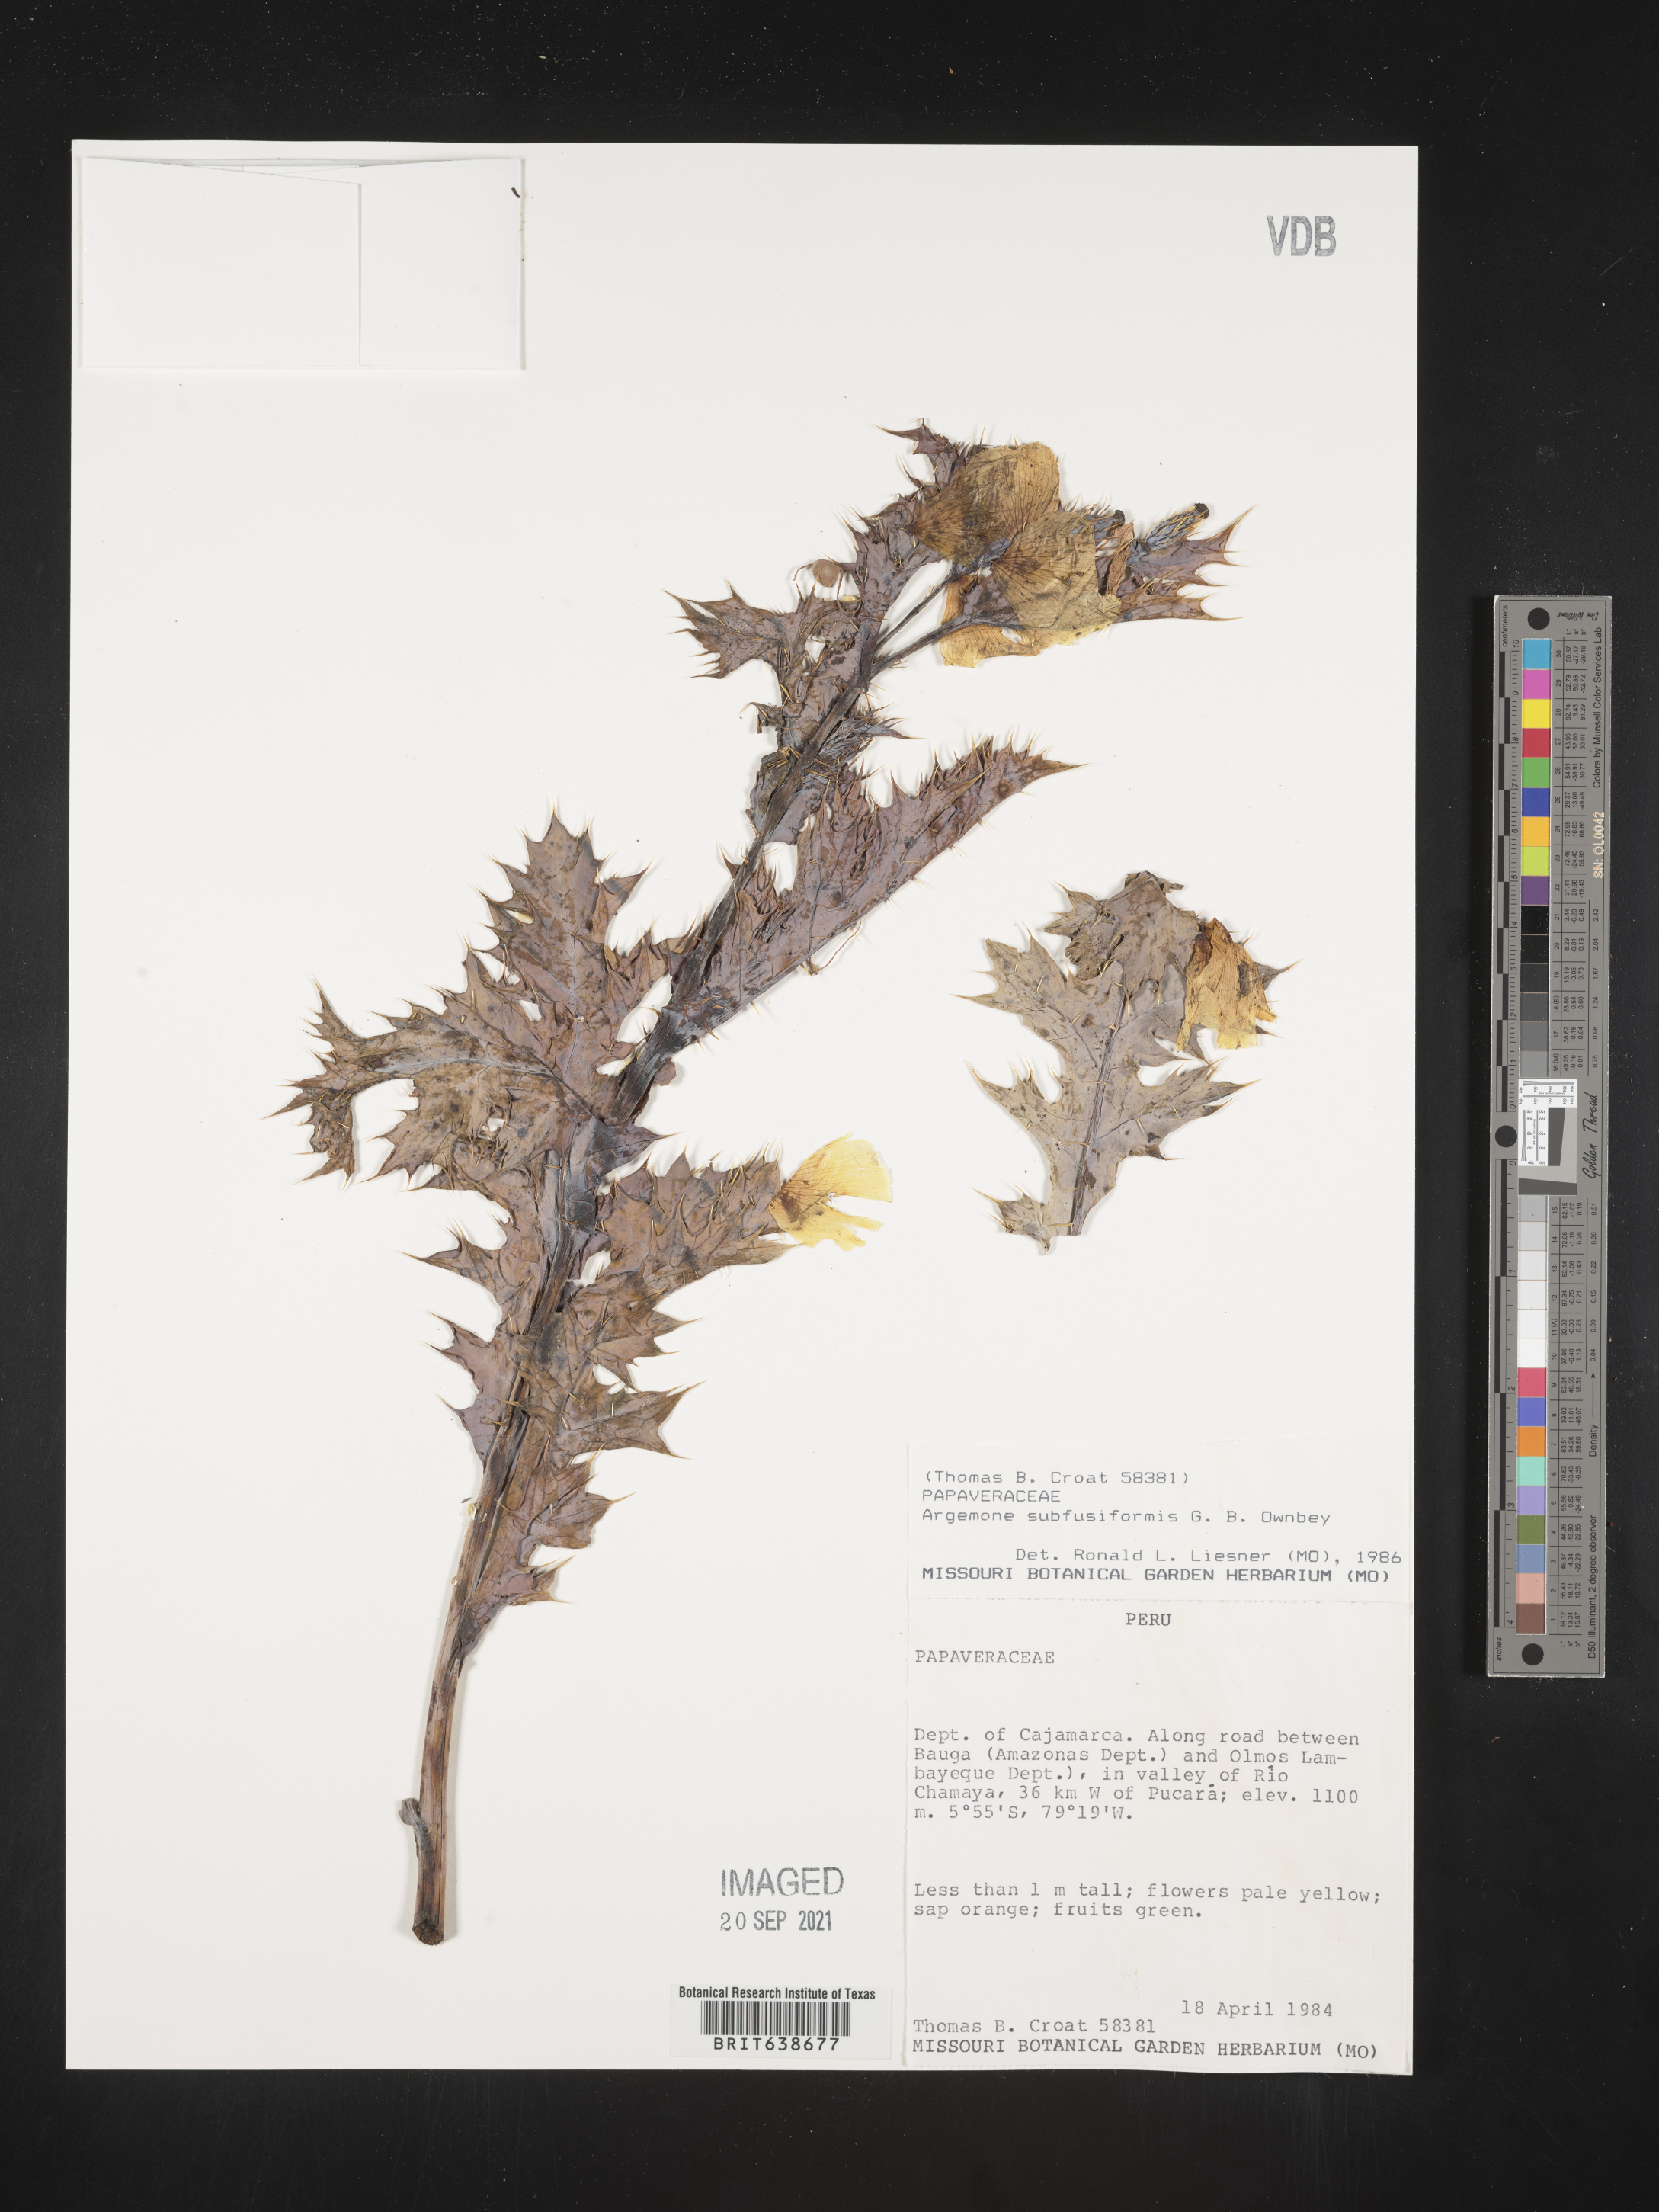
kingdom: Plantae
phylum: Tracheophyta
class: Magnoliopsida
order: Ranunculales
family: Papaveraceae
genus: Argemone
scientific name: Argemone
